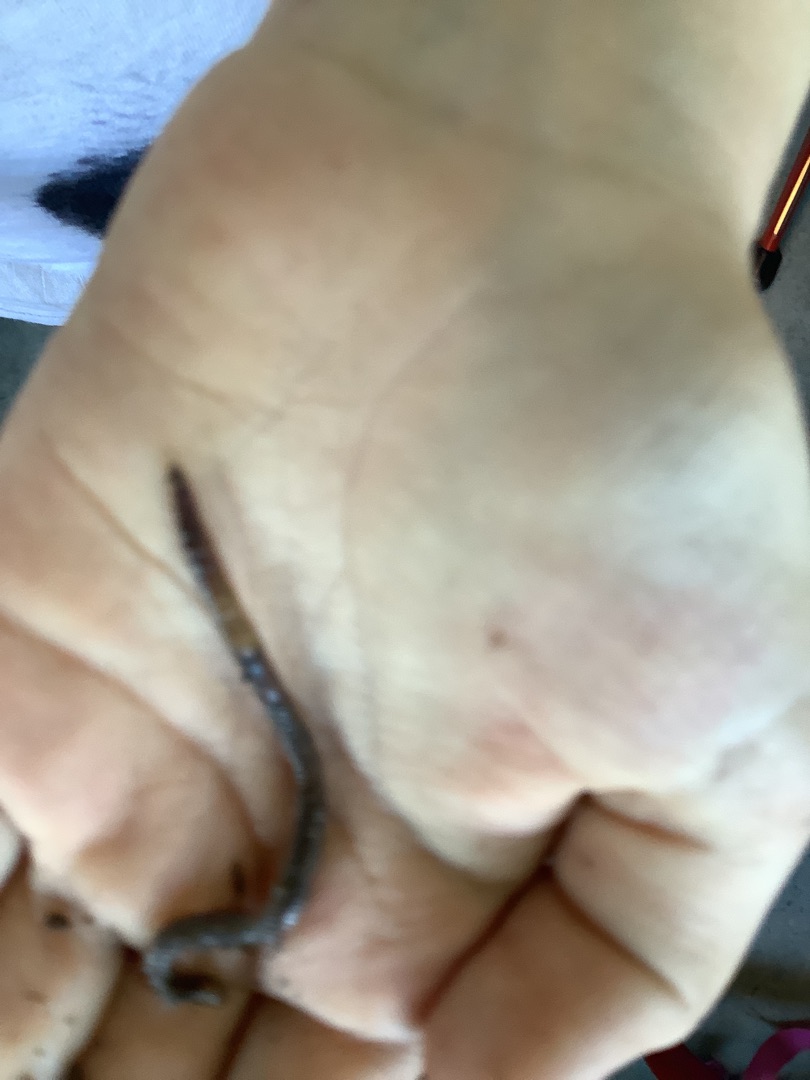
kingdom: Animalia
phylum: Annelida
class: Clitellata
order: Crassiclitellata
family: Lumbricidae
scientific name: Lumbricidae
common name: Regnorme
